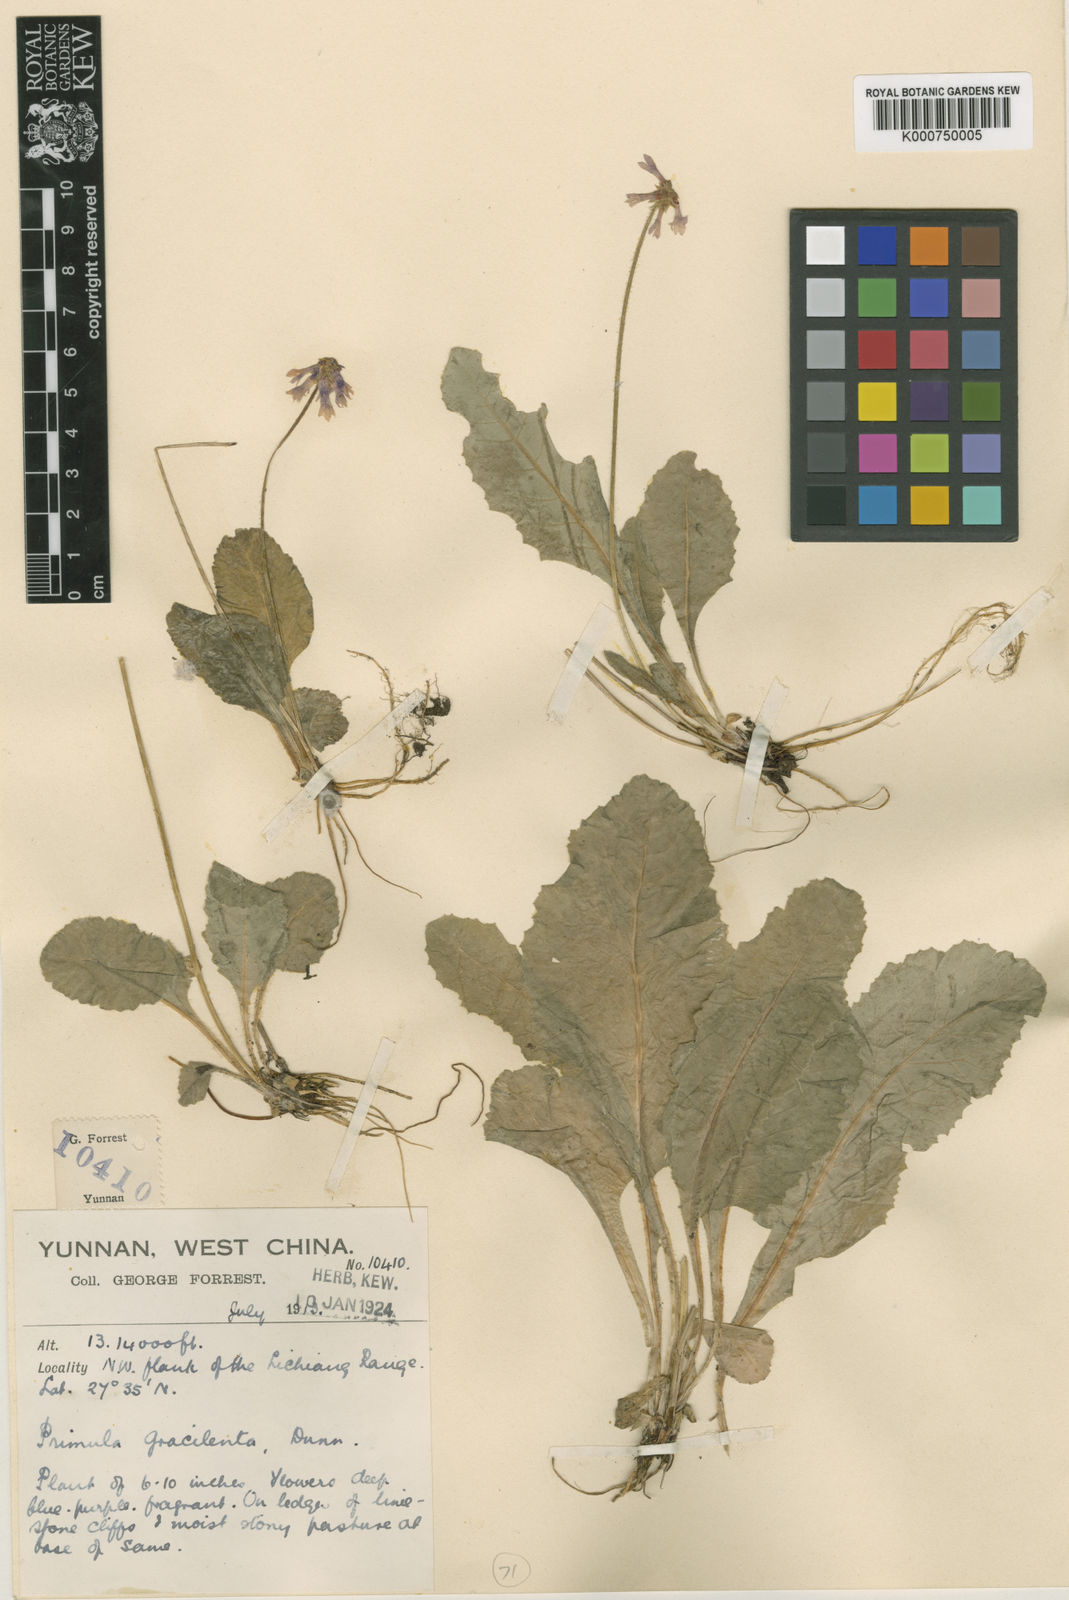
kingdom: Plantae
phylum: Tracheophyta
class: Magnoliopsida
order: Ericales
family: Primulaceae
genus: Primula
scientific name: Primula gracilenta
